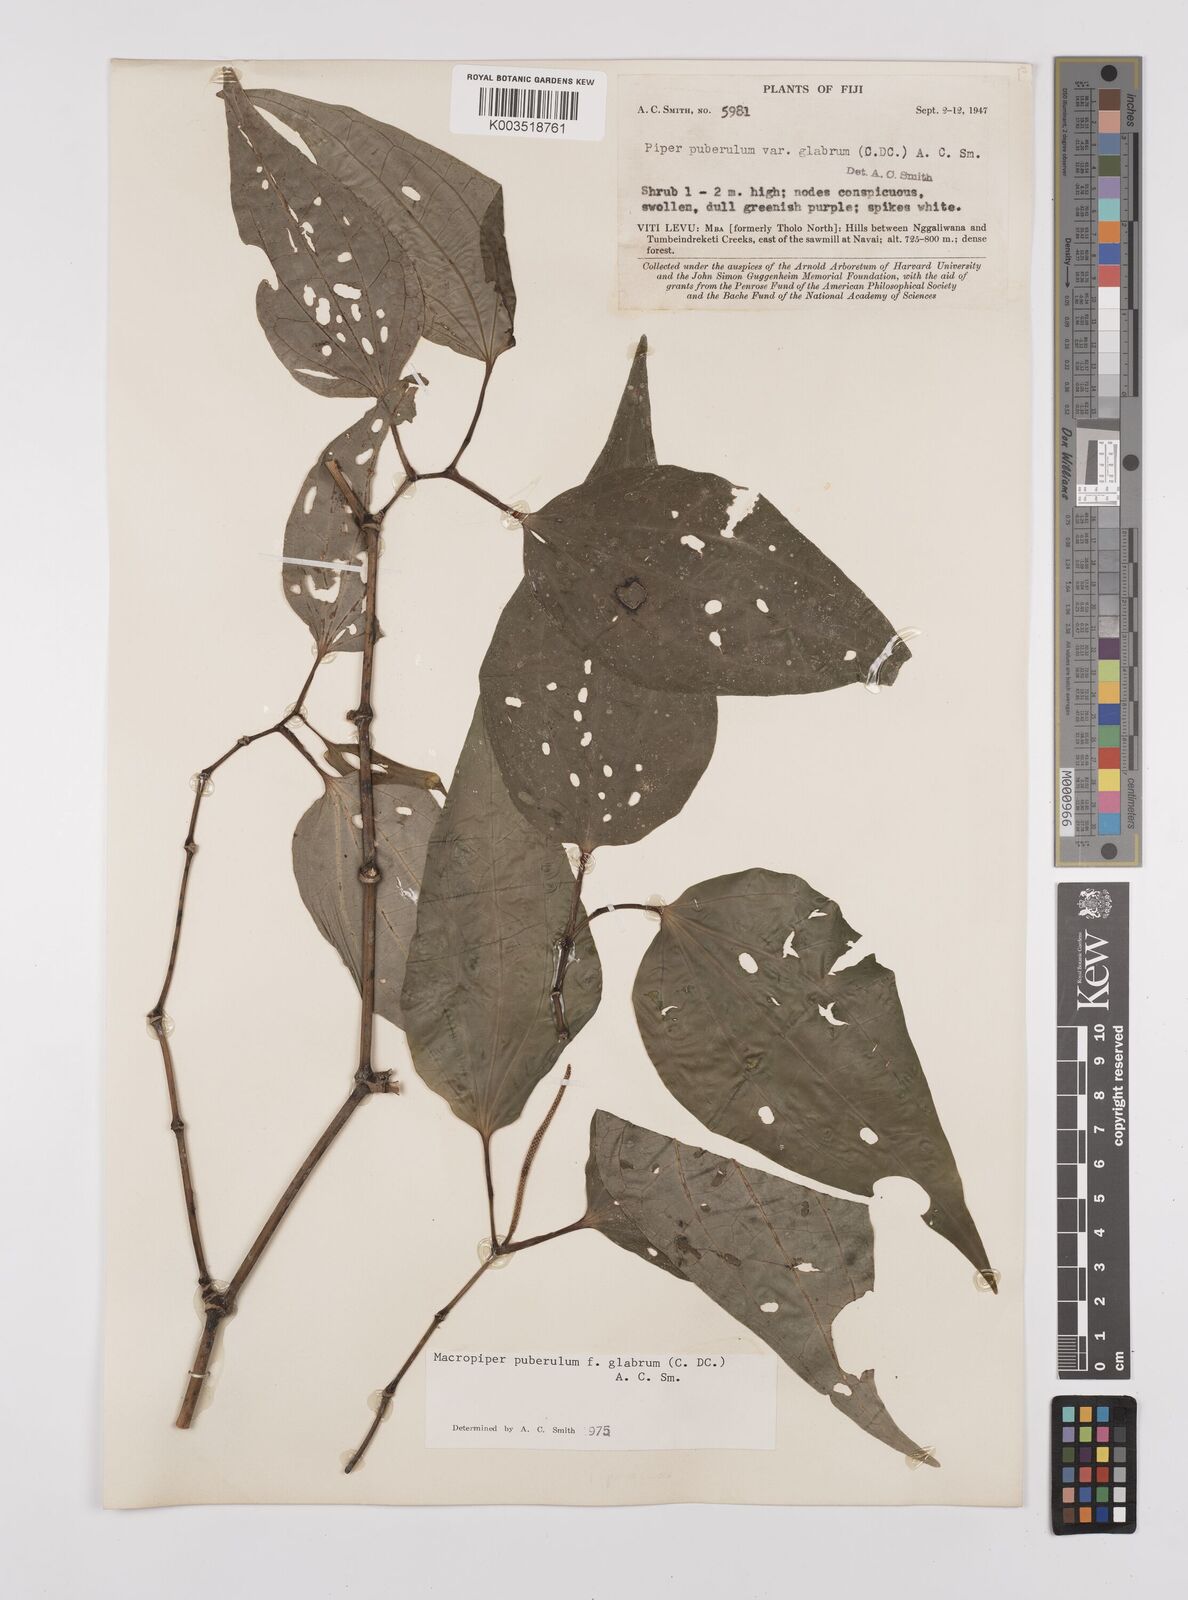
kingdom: Plantae
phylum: Tracheophyta
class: Magnoliopsida
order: Piperales
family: Piperaceae
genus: Macropiper
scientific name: Macropiper puberulum
